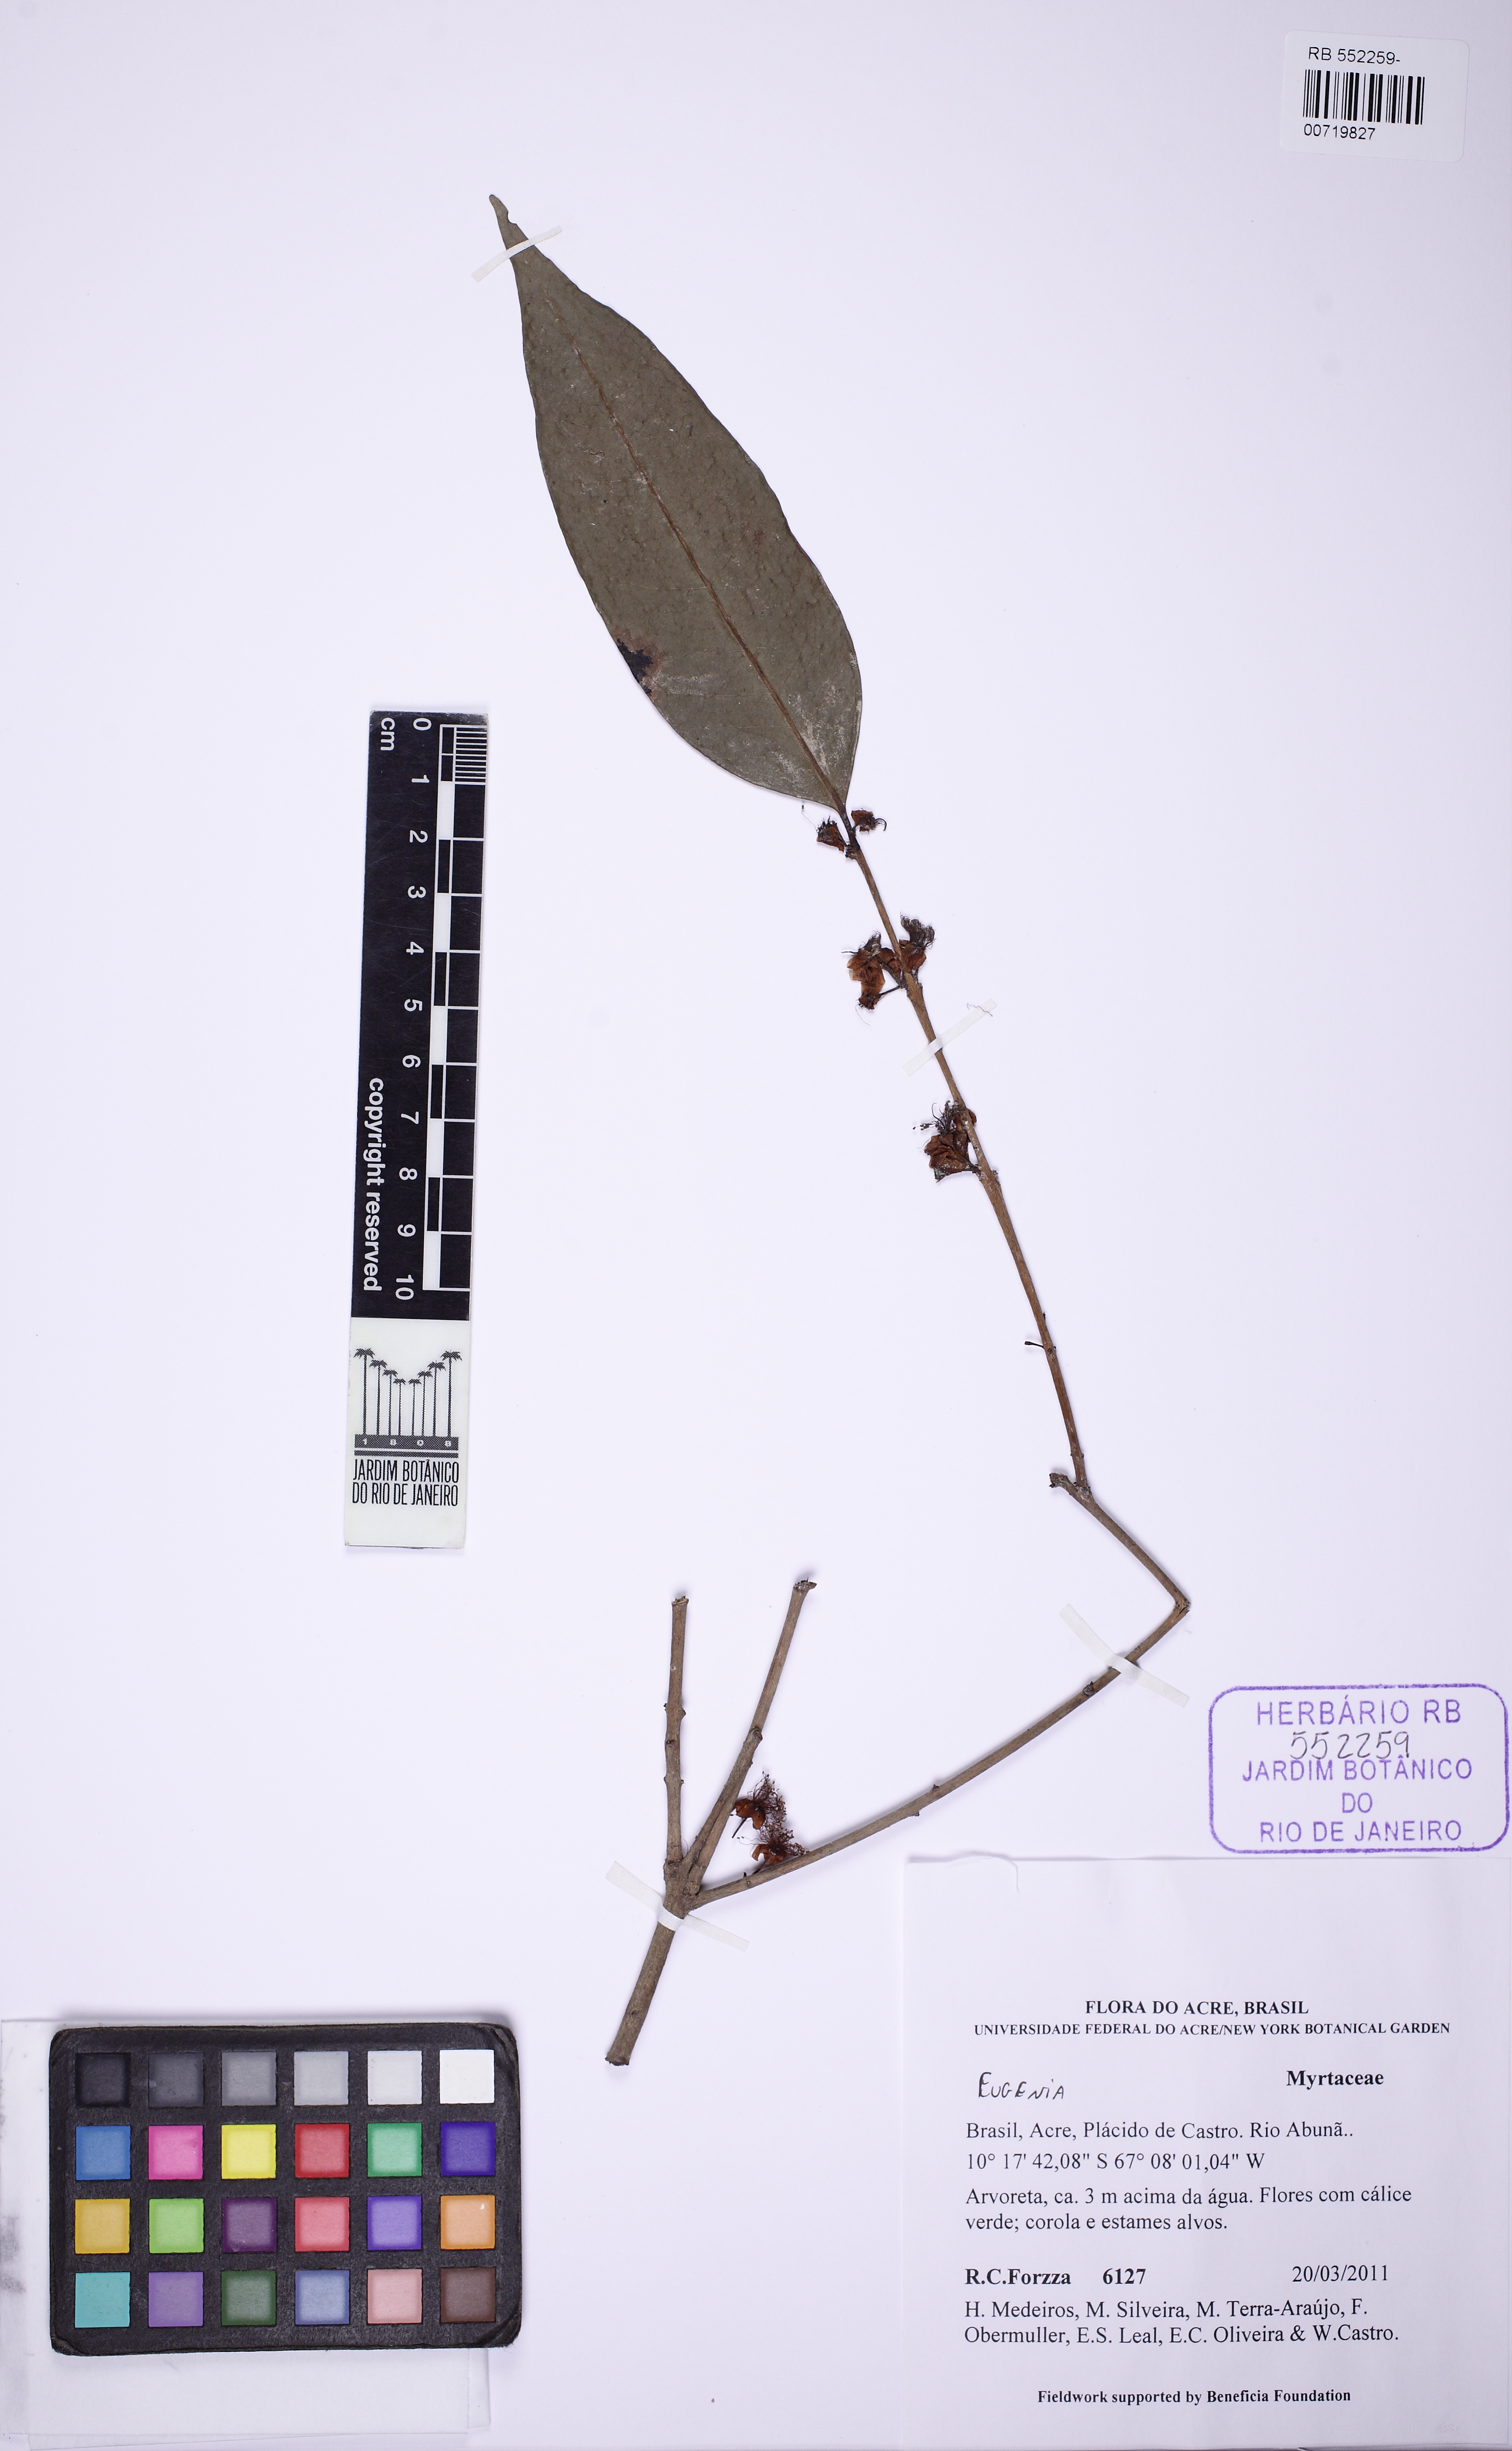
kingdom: Plantae
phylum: Tracheophyta
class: Magnoliopsida
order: Myrtales
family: Myrtaceae
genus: Eugenia
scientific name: Eugenia lambertiana
